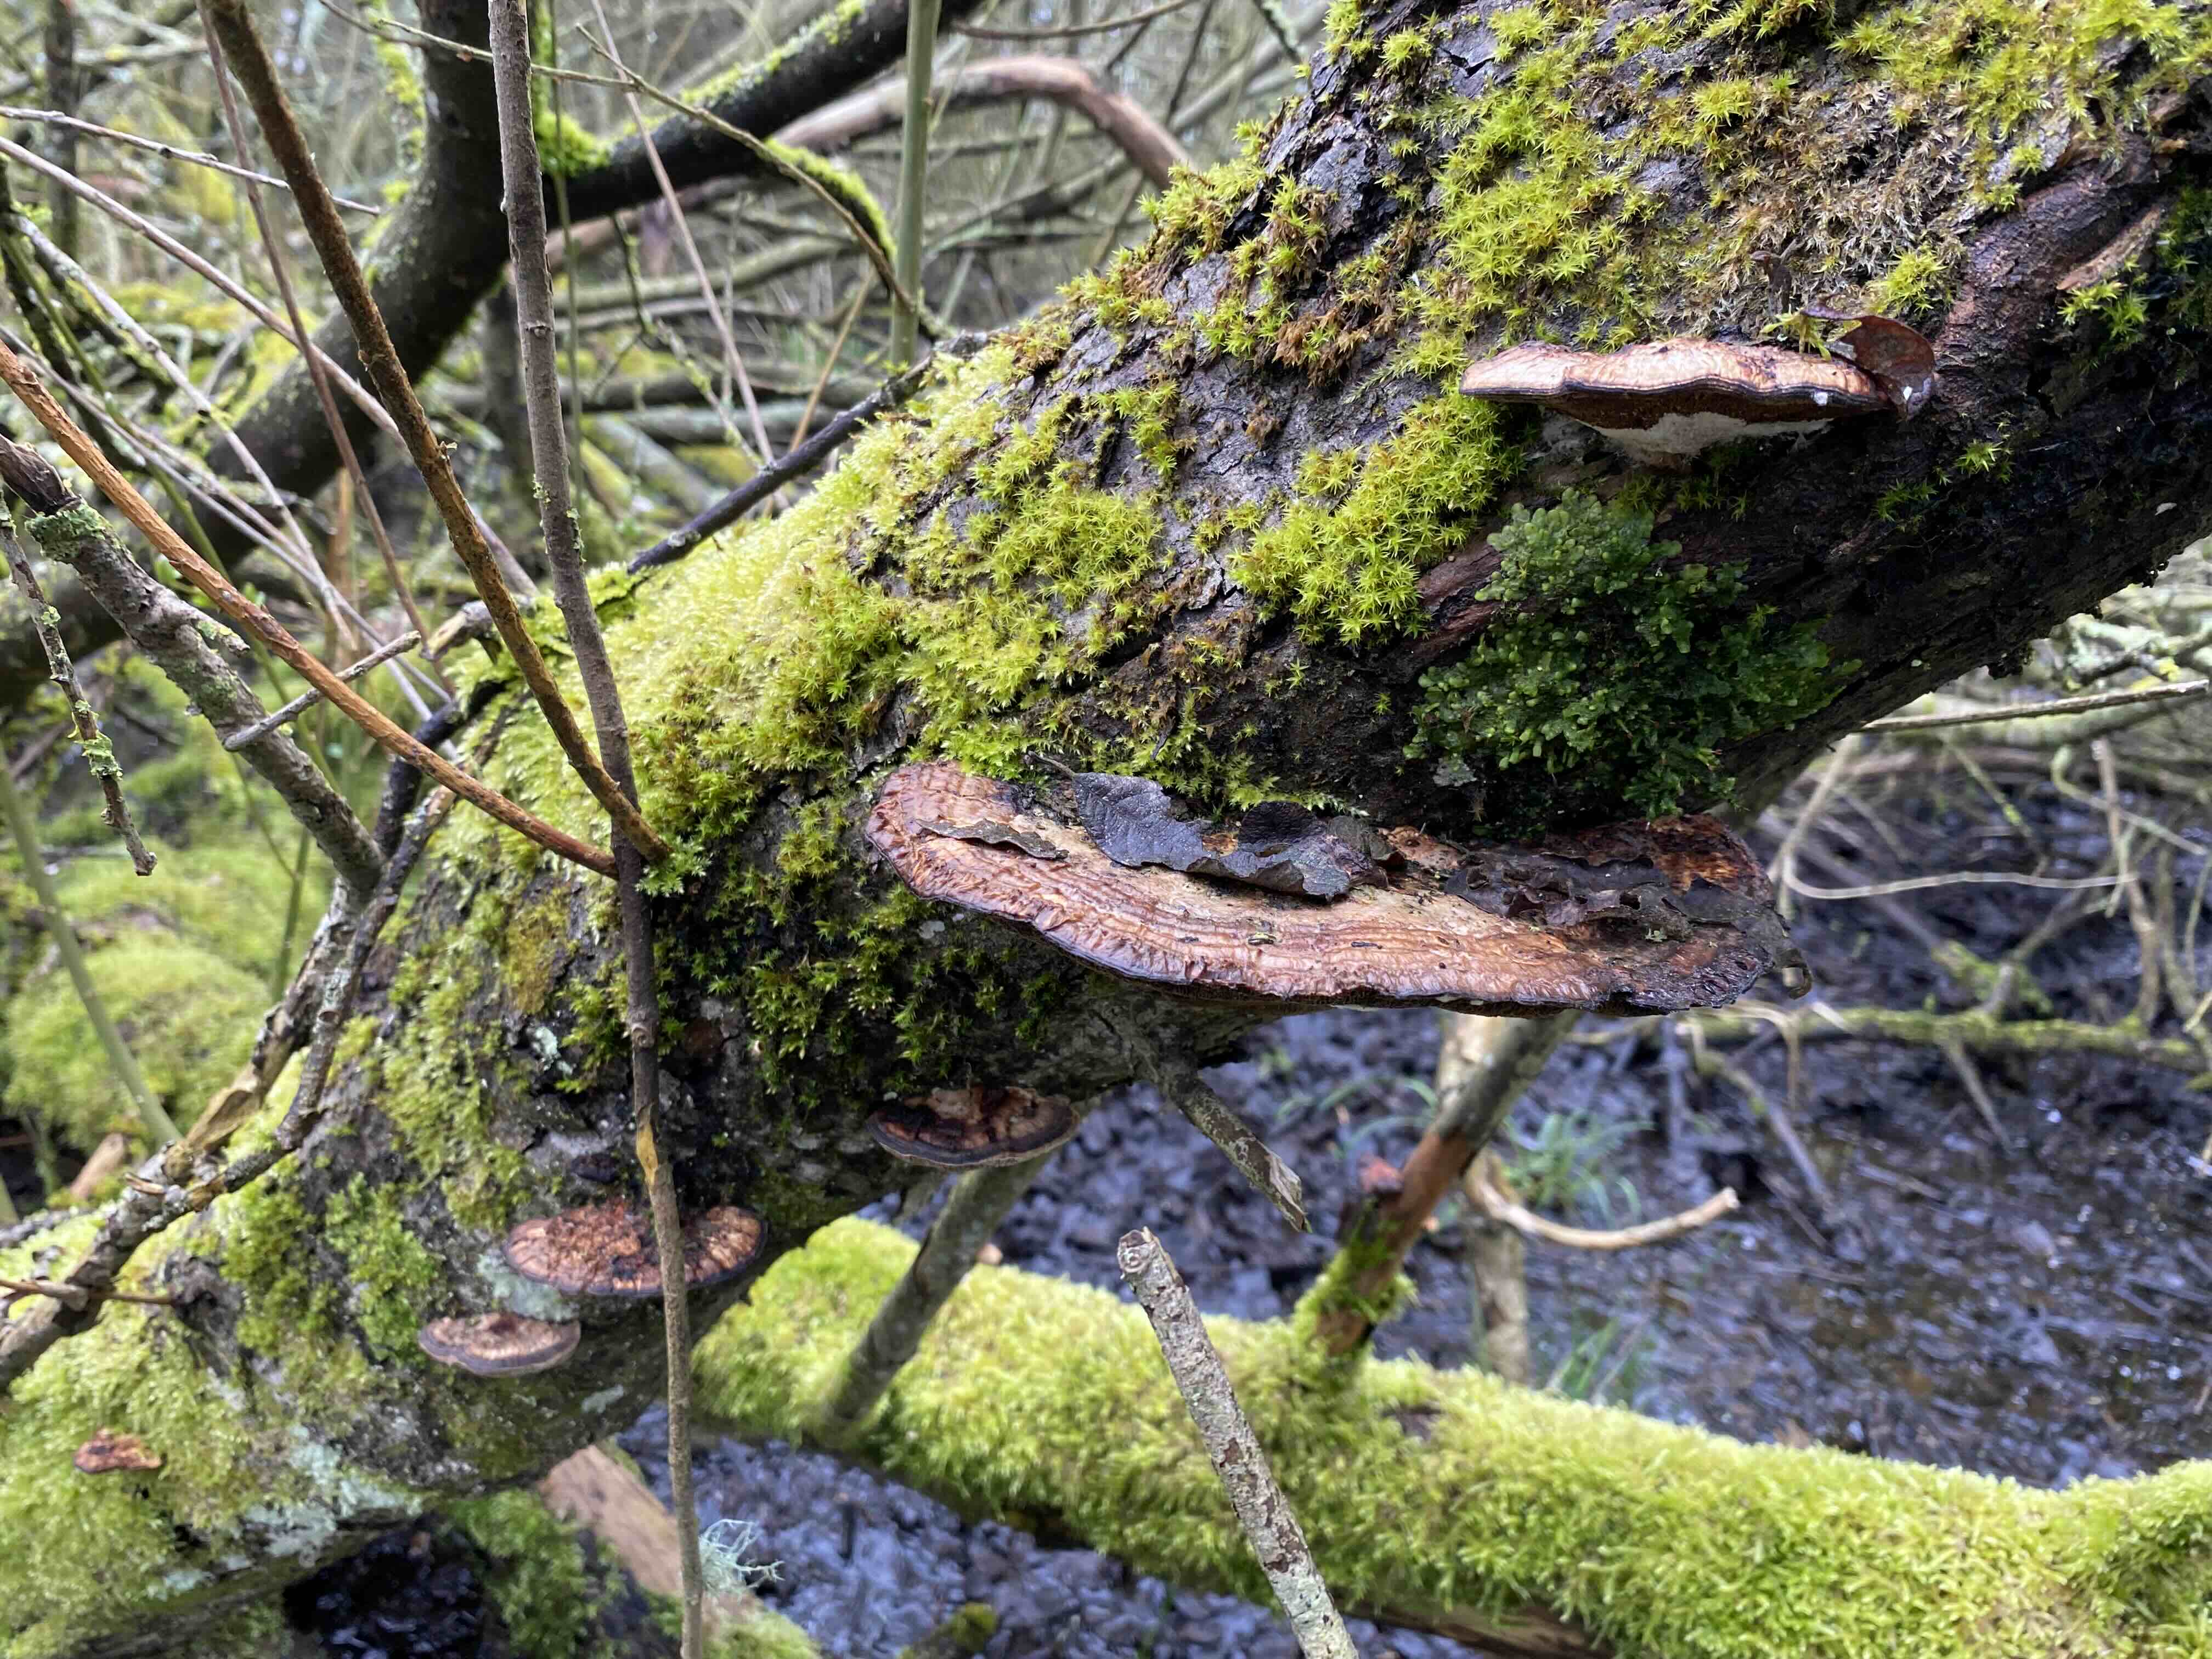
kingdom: Fungi
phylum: Basidiomycota
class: Agaricomycetes
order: Polyporales
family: Polyporaceae
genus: Daedaleopsis
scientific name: Daedaleopsis confragosa
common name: rødmende læderporesvamp
